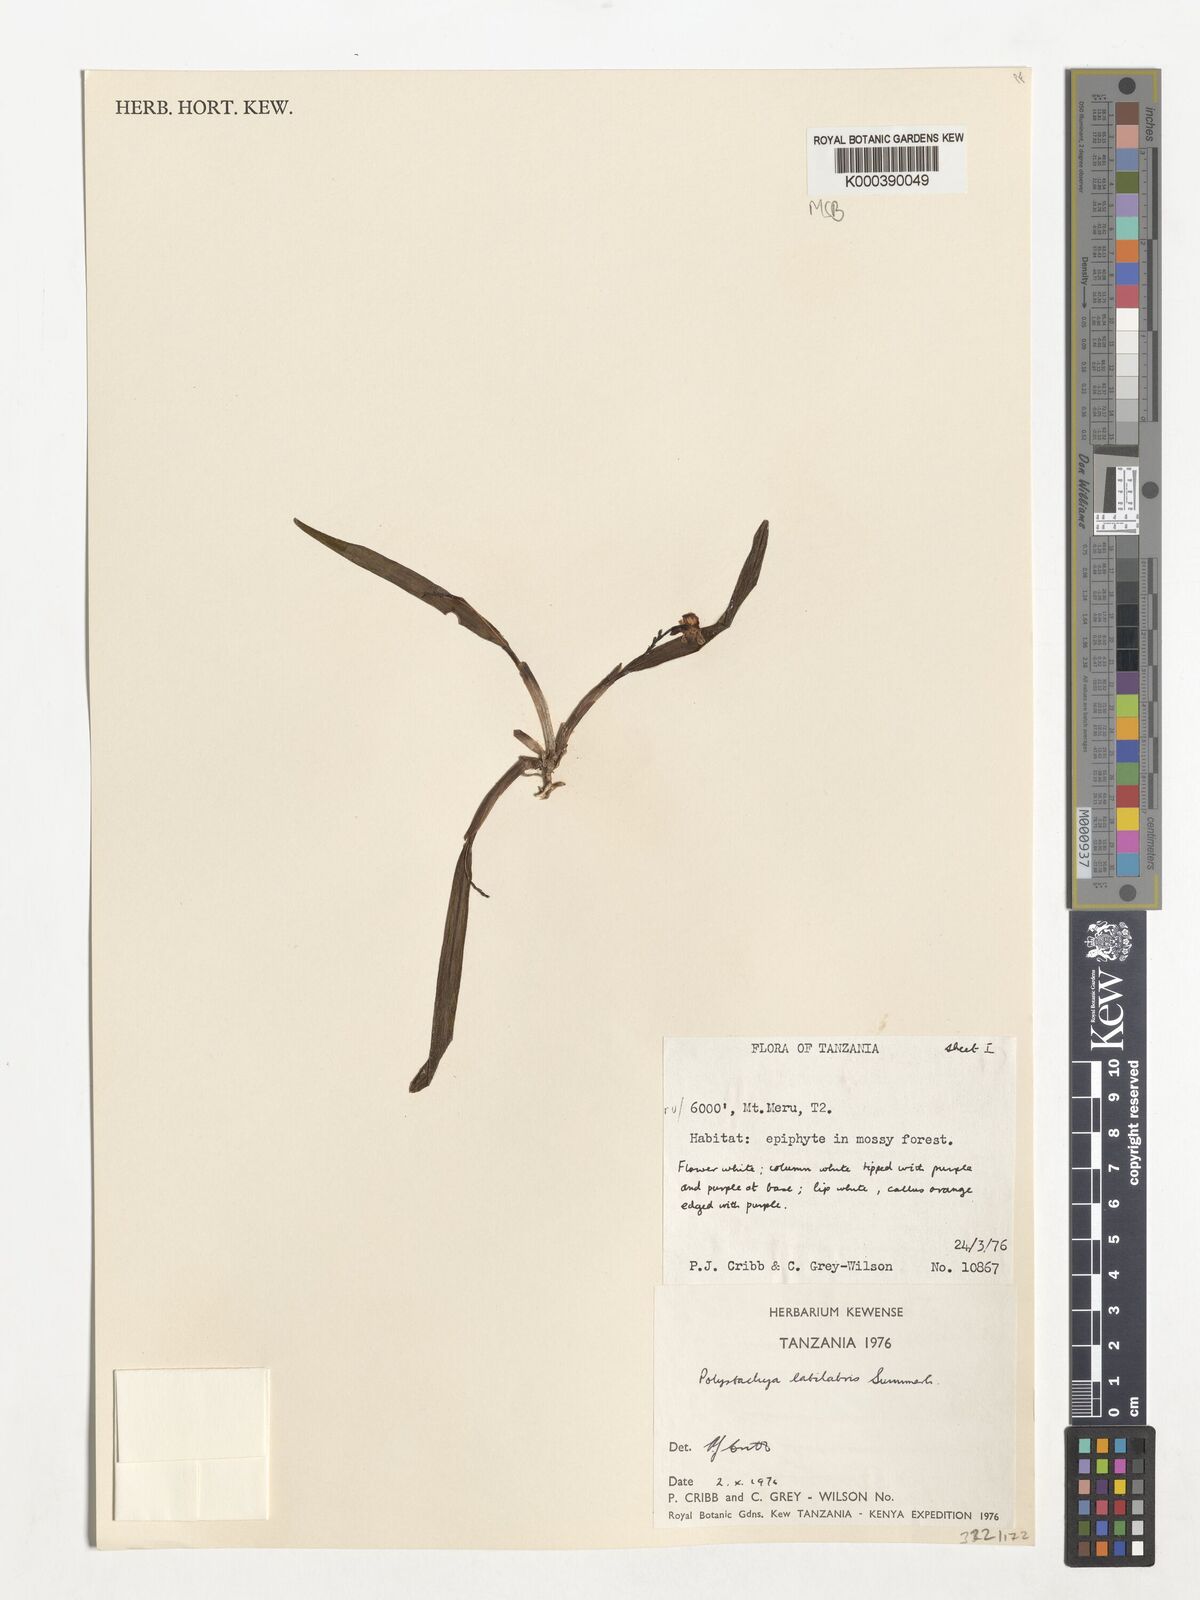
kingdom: Plantae
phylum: Tracheophyta
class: Liliopsida
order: Asparagales
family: Orchidaceae
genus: Polystachya
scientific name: Polystachya caespitifica
